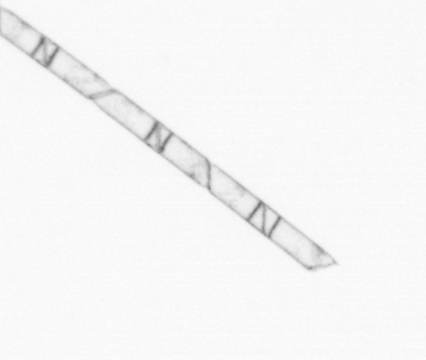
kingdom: Chromista
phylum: Ochrophyta
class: Bacillariophyceae
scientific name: Bacillariophyceae
